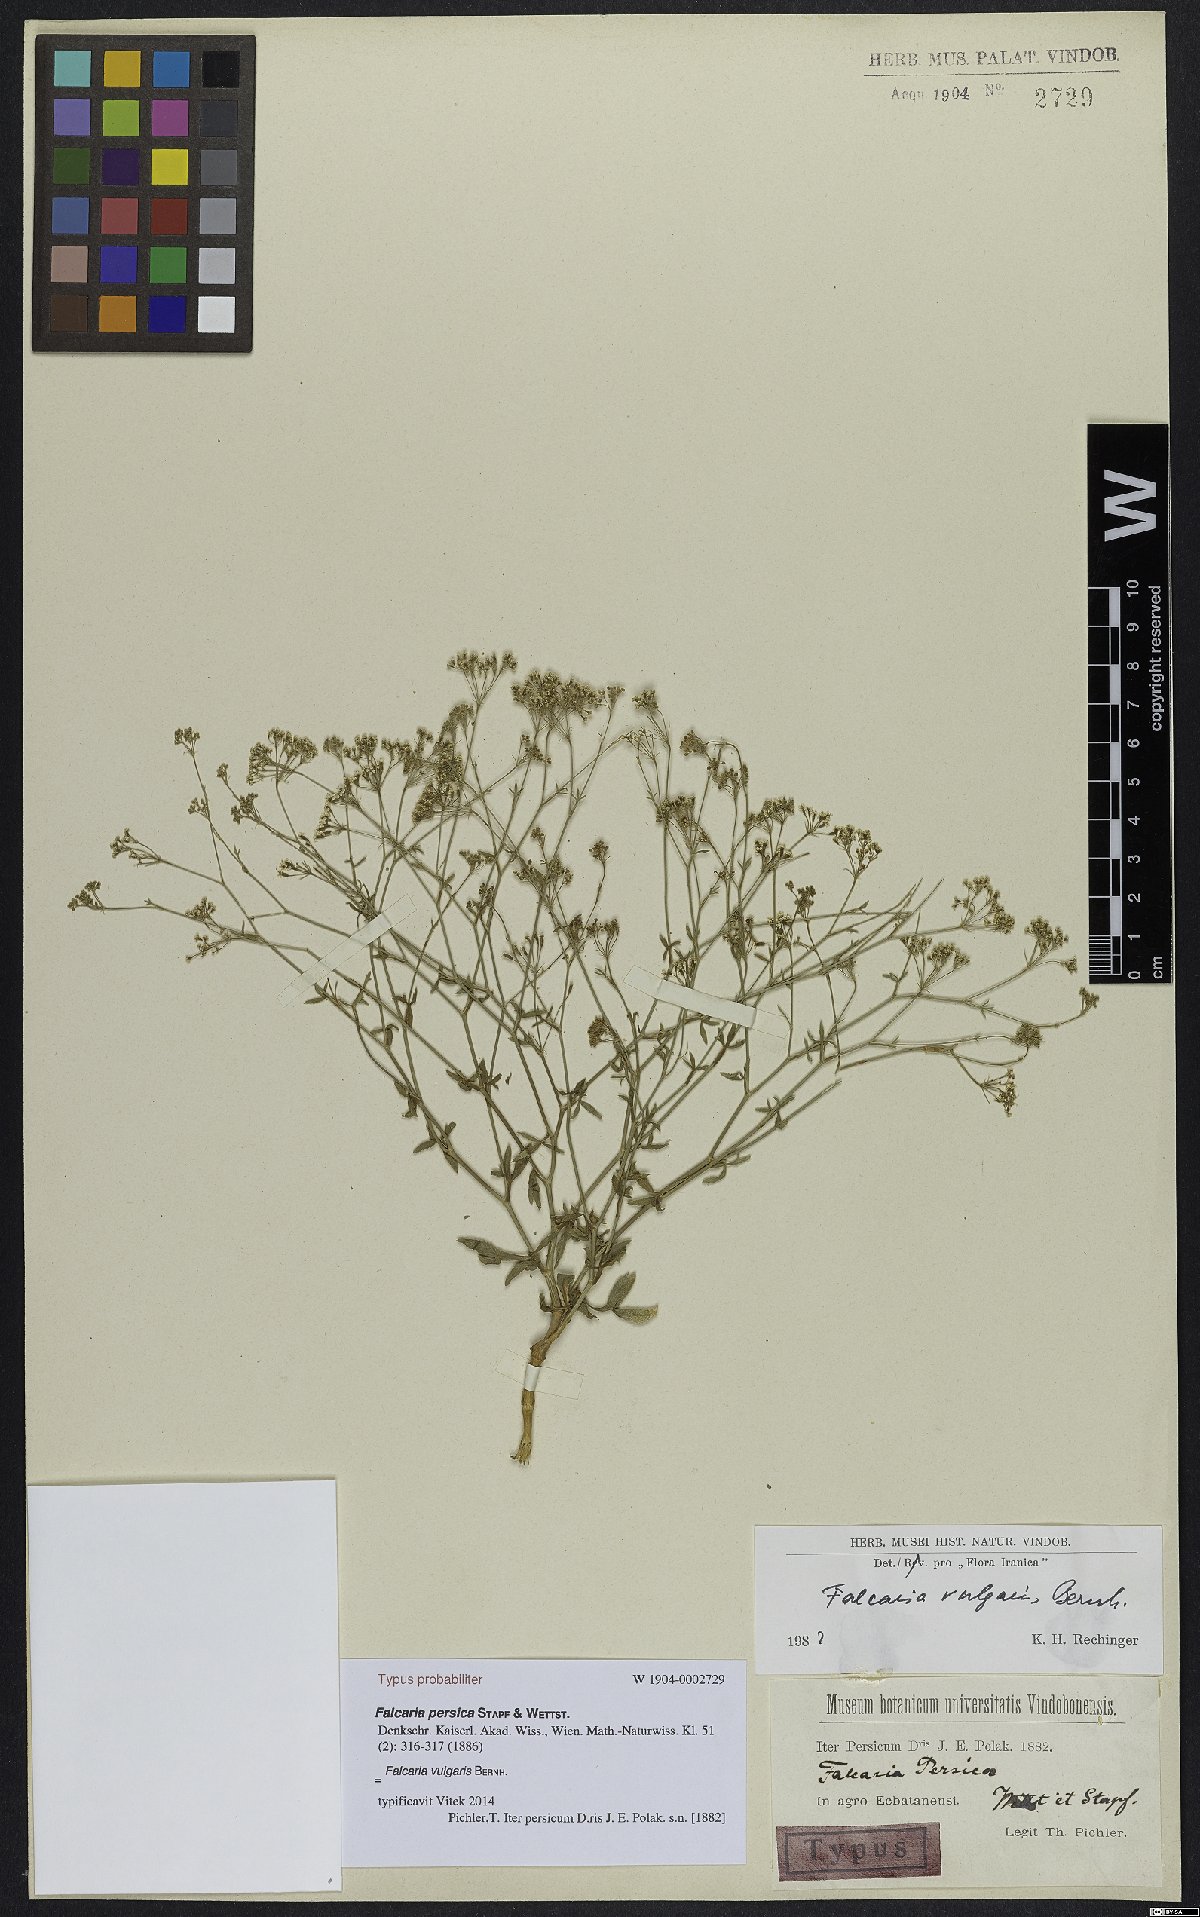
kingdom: Plantae
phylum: Tracheophyta
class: Magnoliopsida
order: Apiales
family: Apiaceae
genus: Falcaria
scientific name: Falcaria vulgaris
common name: Longleaf
